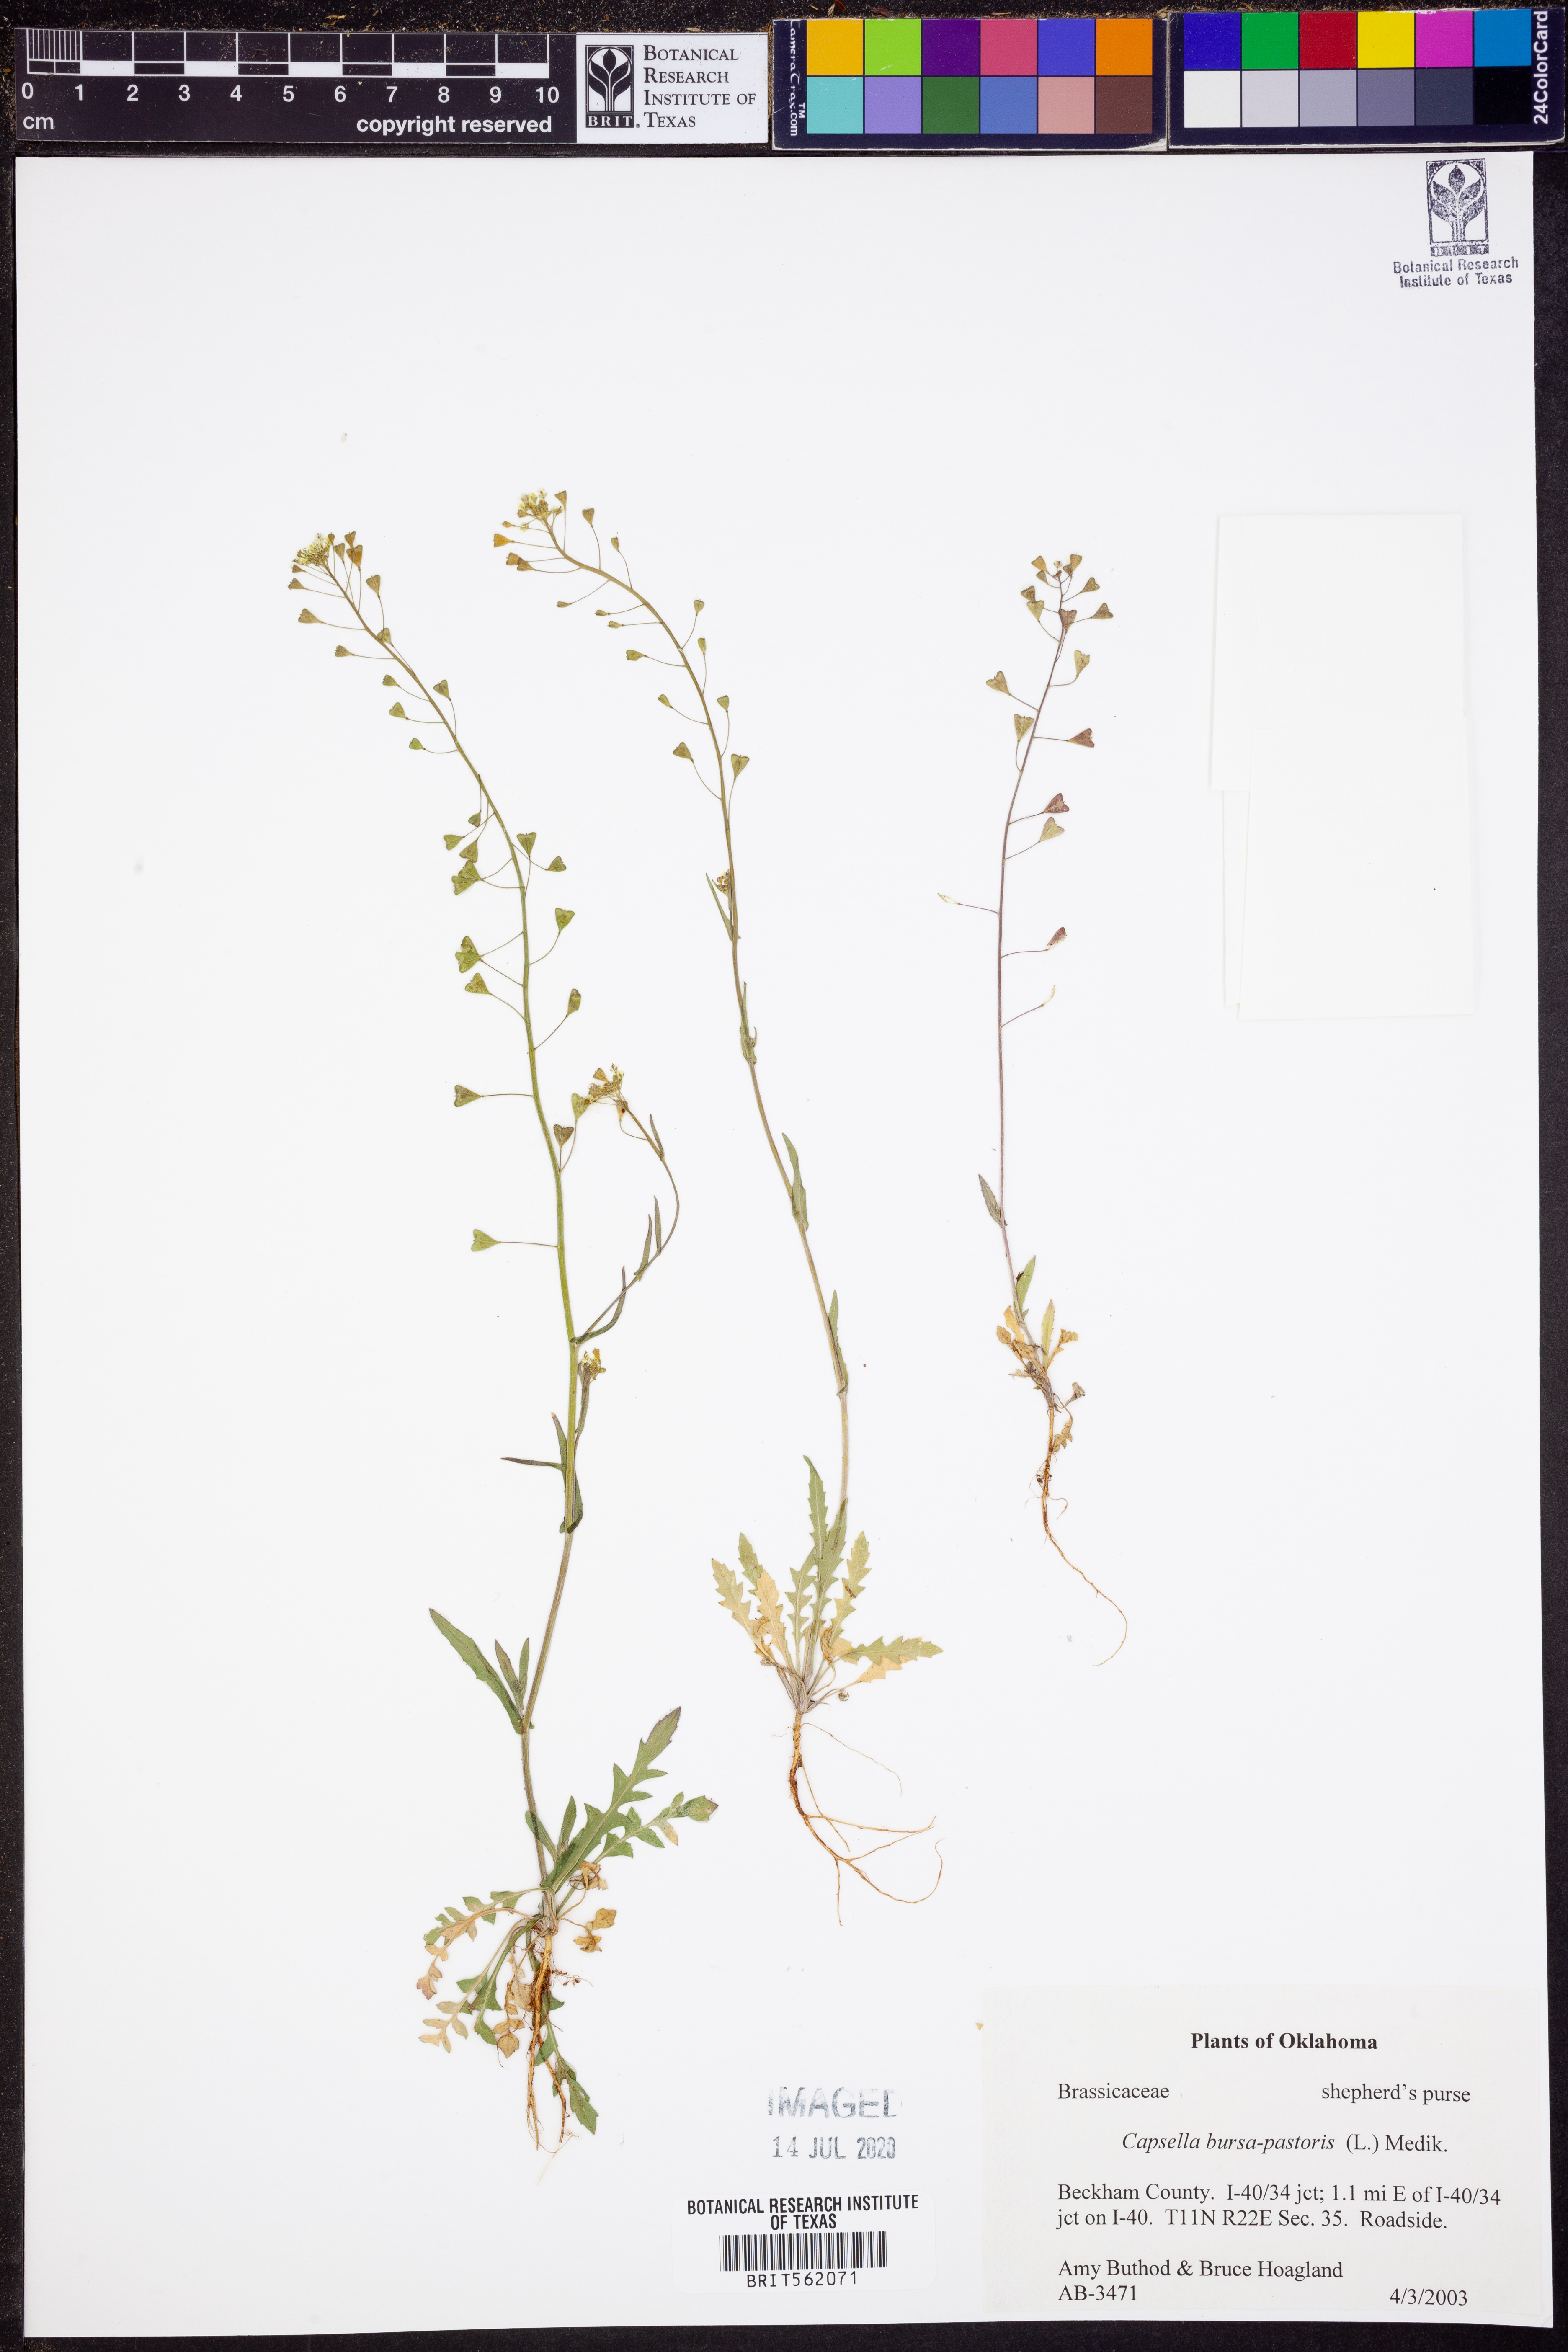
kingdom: Plantae
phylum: Tracheophyta
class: Magnoliopsida
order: Brassicales
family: Brassicaceae
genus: Capsella
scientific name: Capsella bursa-pastoris
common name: Shepherd's purse
